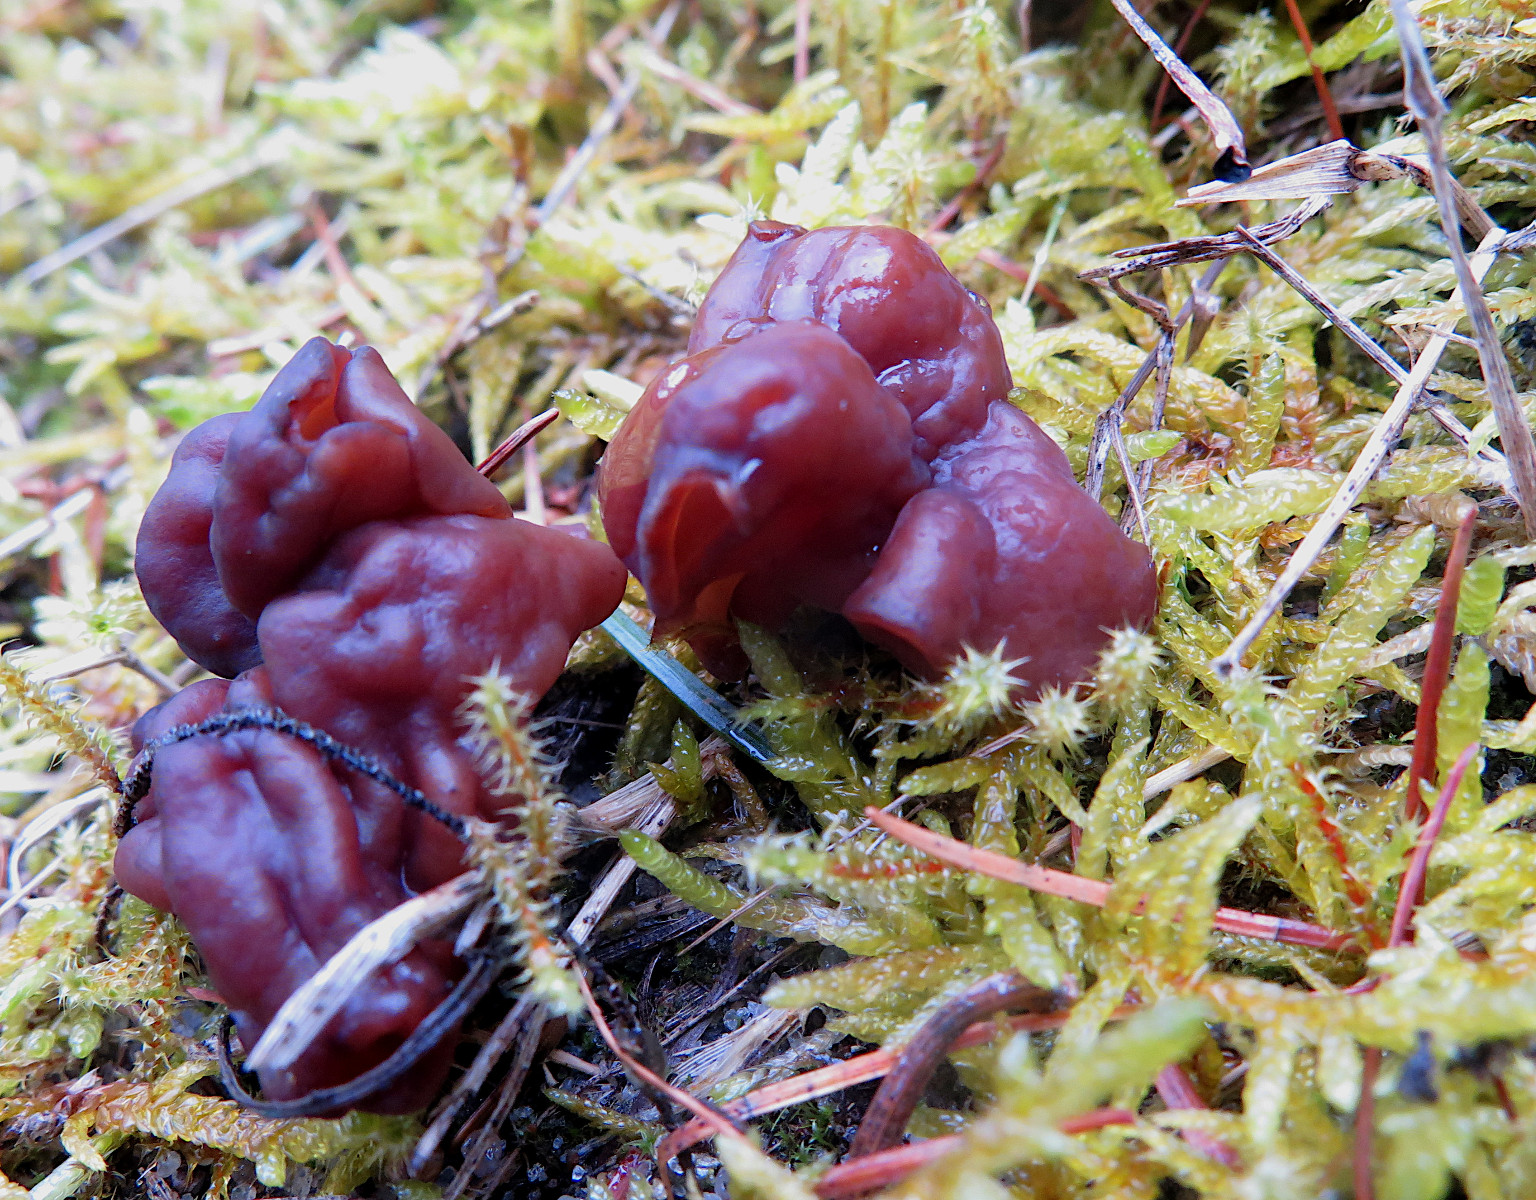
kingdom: Fungi
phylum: Ascomycota
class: Pezizomycetes
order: Pezizales
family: Discinaceae
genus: Gyromitra
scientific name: Gyromitra esculenta
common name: ægte stenmorkel
